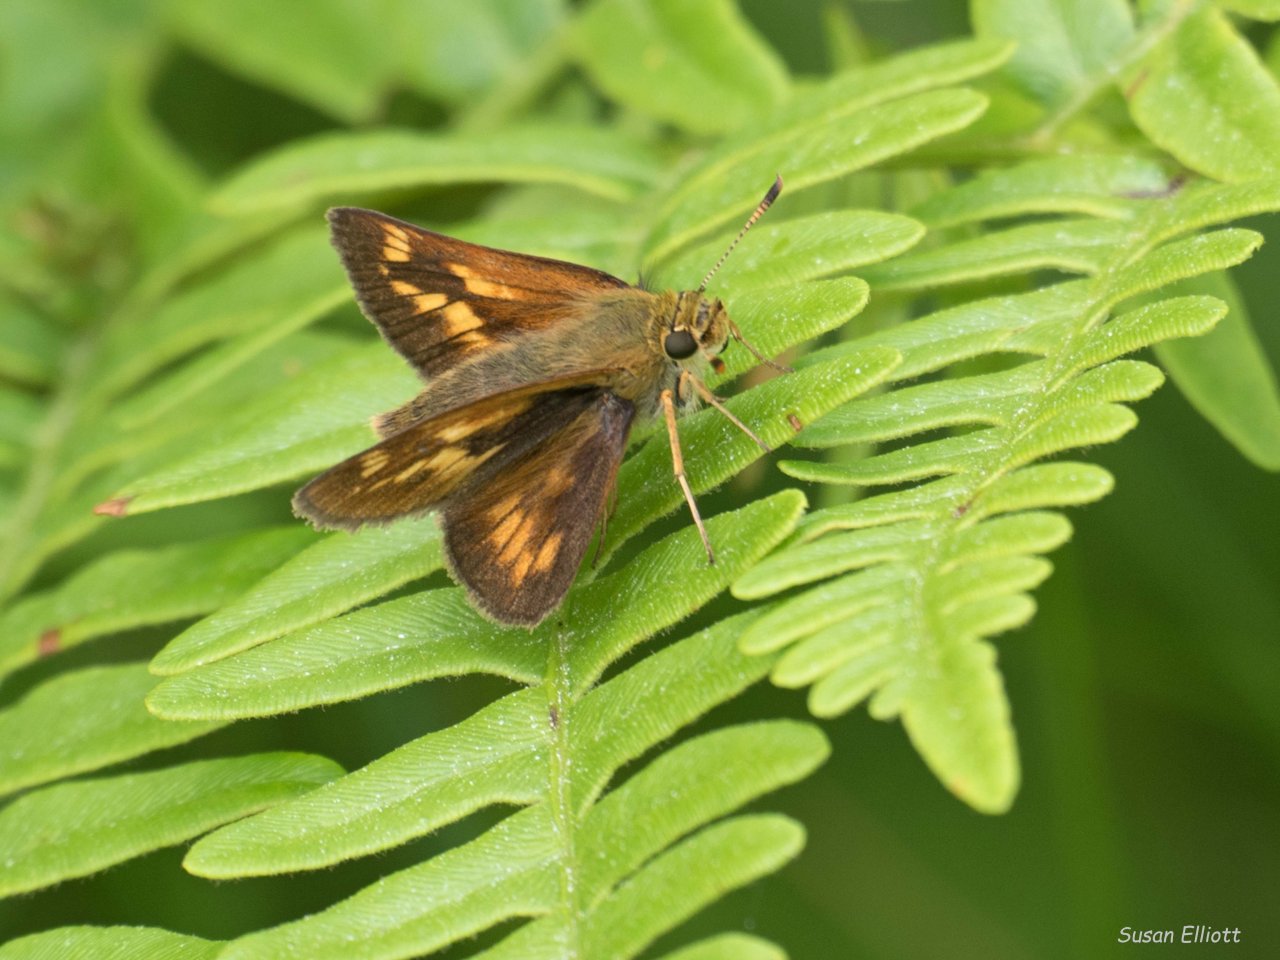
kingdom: Animalia
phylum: Arthropoda
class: Insecta
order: Lepidoptera
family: Hesperiidae
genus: Polites
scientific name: Polites coras
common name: Peck's Skipper
